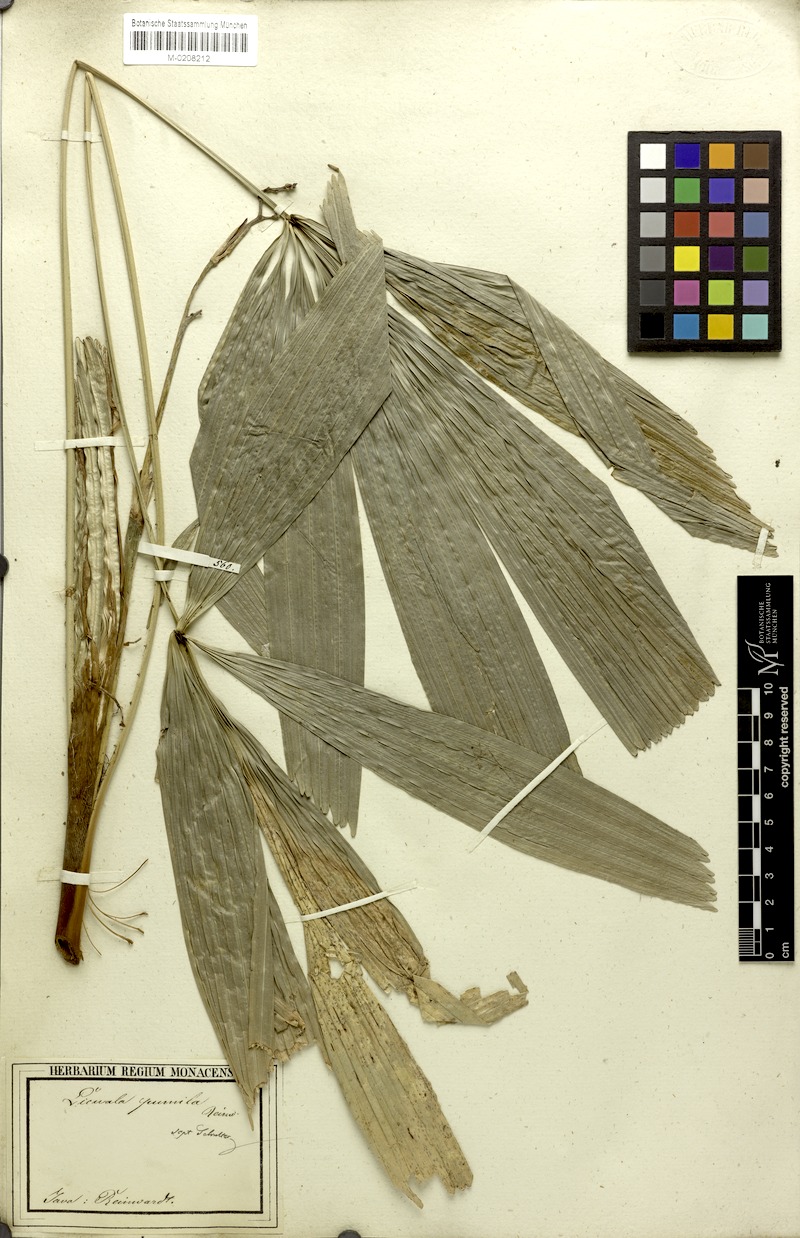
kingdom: Plantae
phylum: Tracheophyta
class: Liliopsida
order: Arecales
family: Arecaceae
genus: Licuala
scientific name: Licuala pumila
